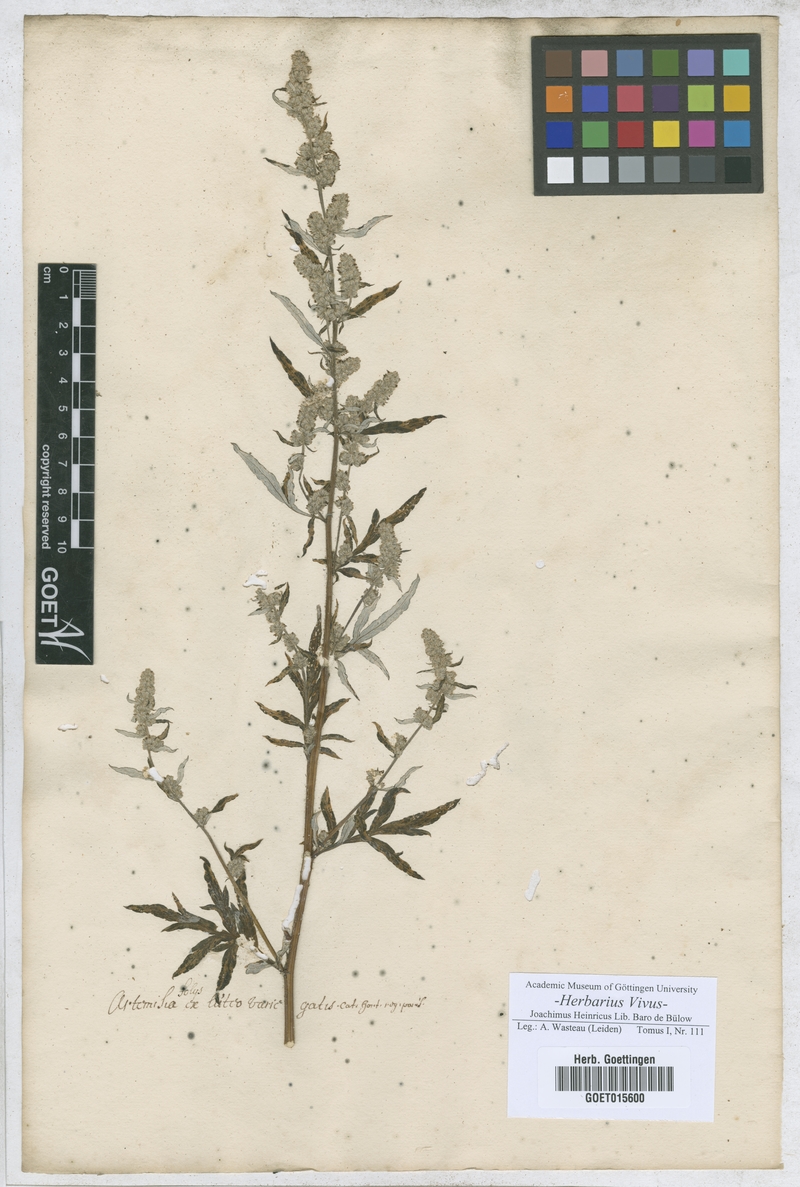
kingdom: Plantae
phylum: Tracheophyta
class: Magnoliopsida
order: Asterales
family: Asteraceae
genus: Artemisia
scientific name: Artemisia
